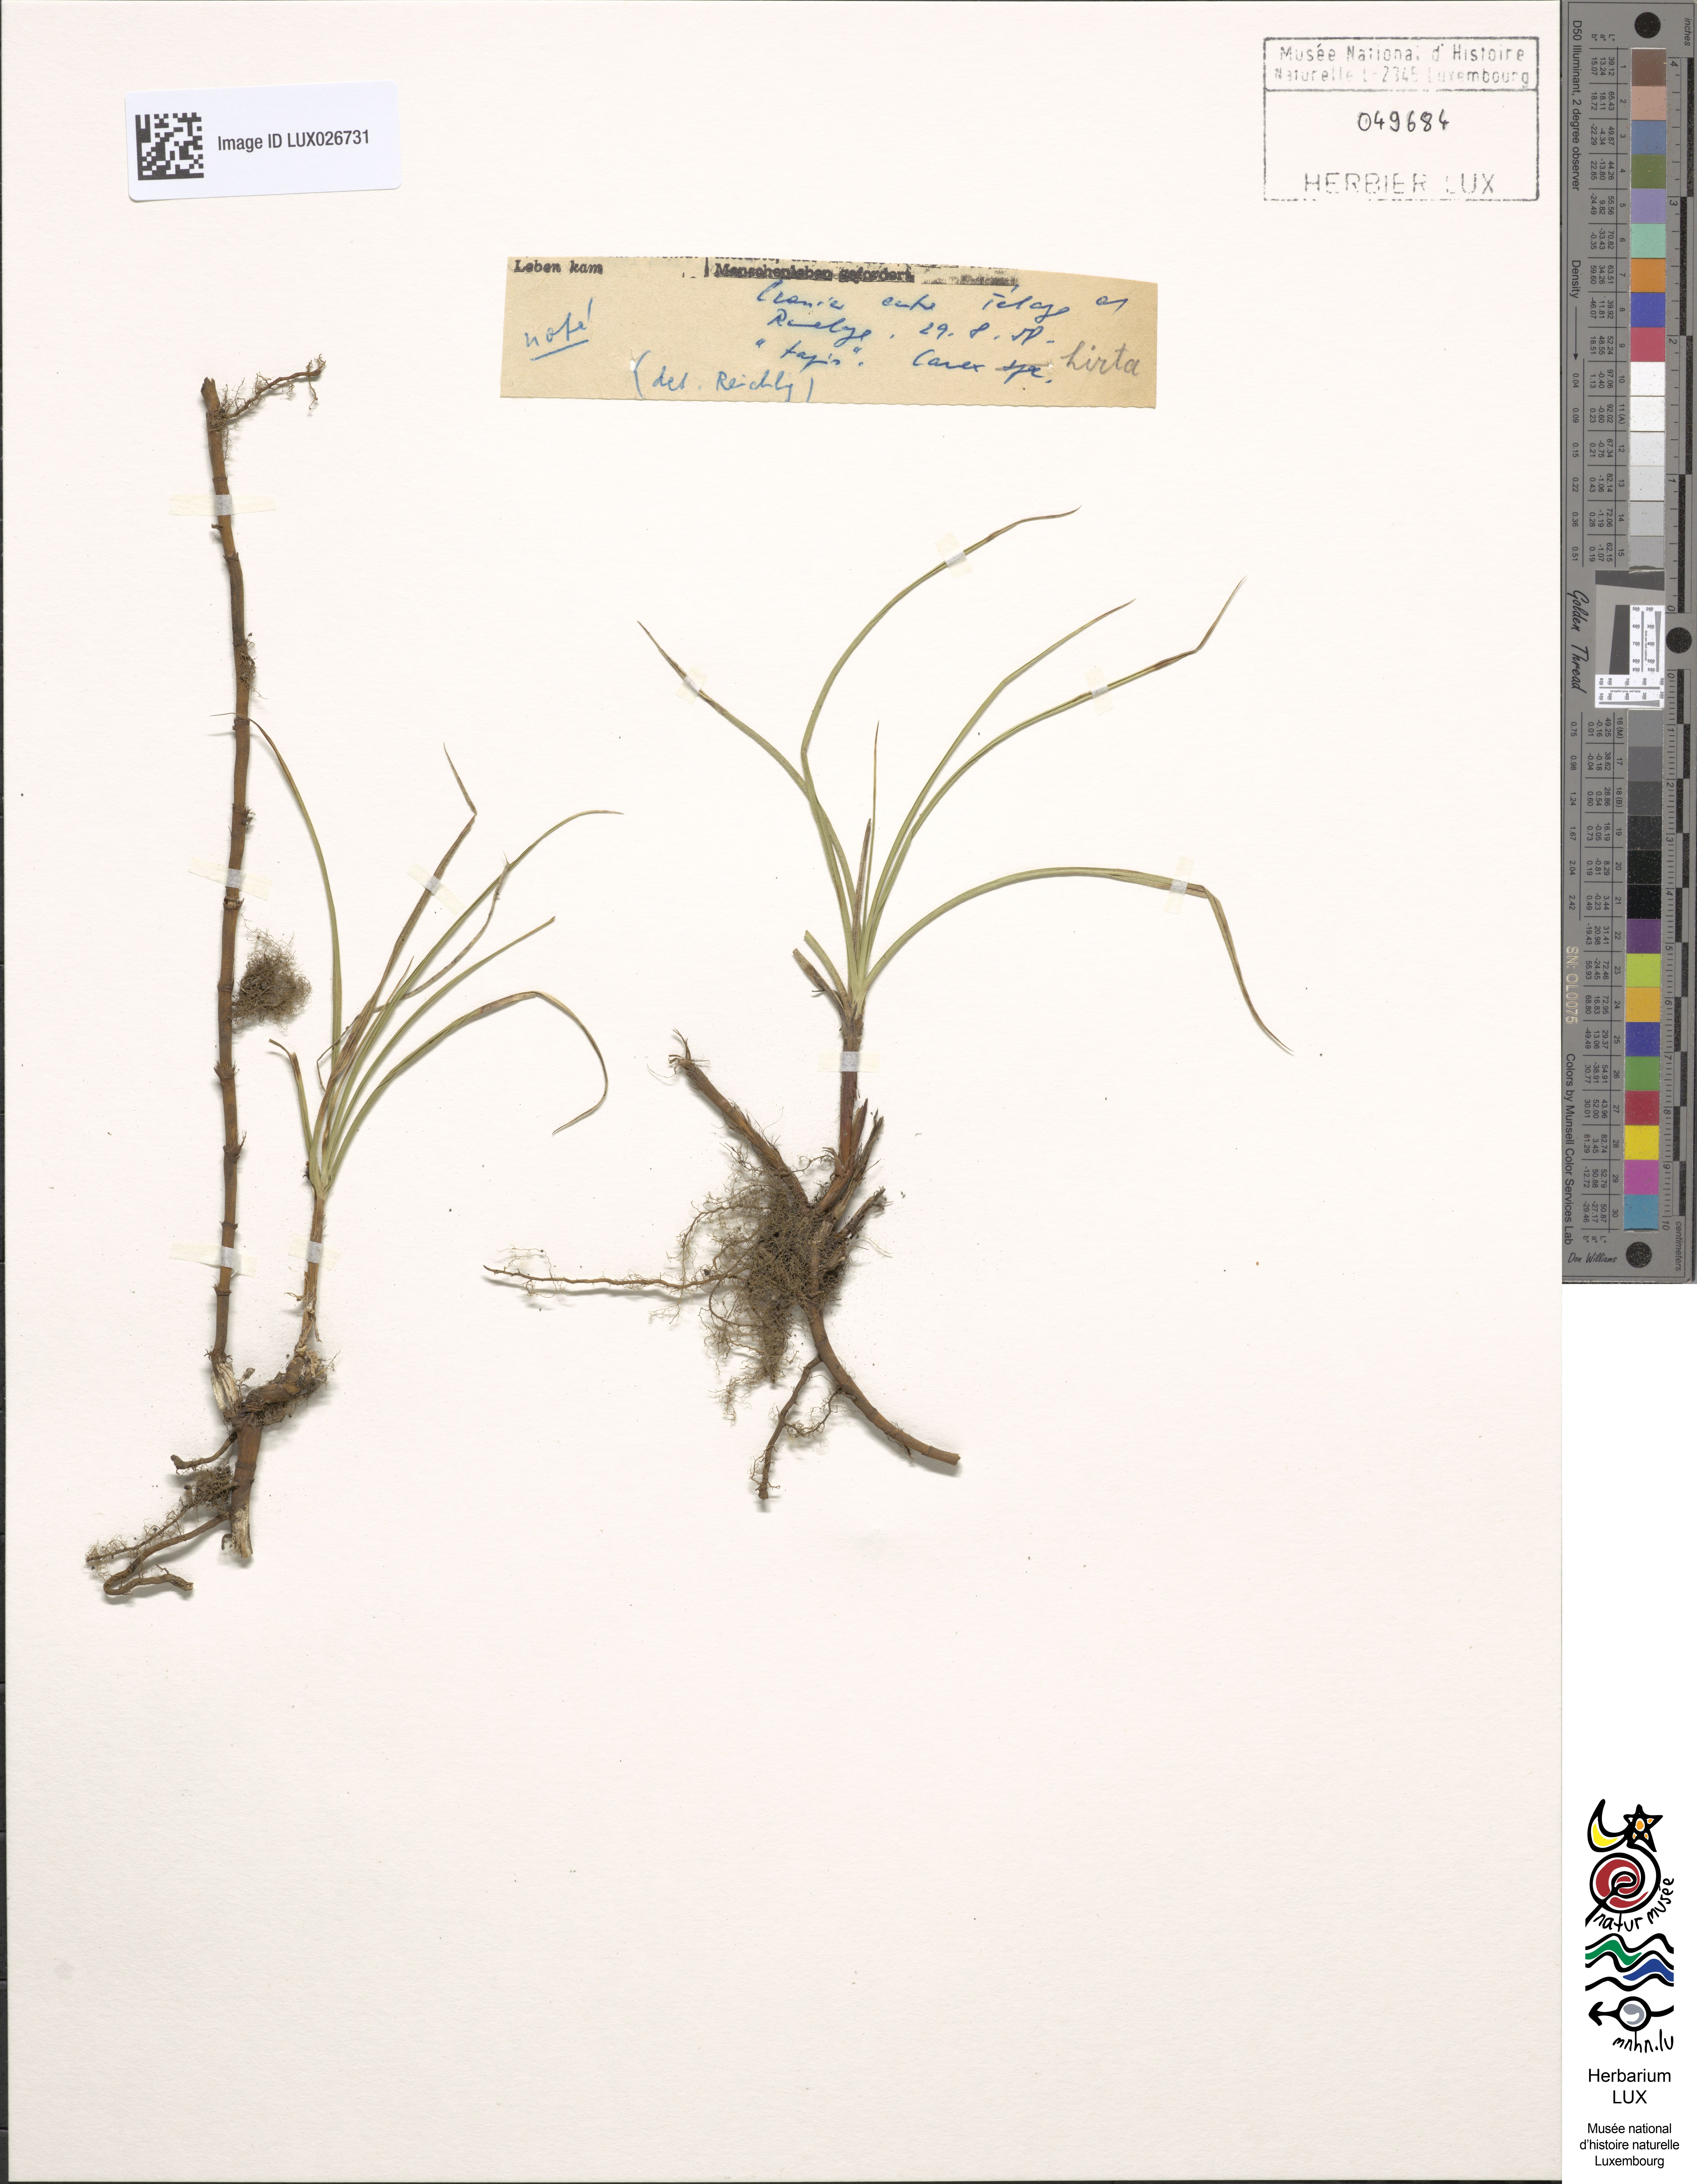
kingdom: Plantae
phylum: Tracheophyta
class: Liliopsida
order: Poales
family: Cyperaceae
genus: Carex
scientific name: Carex hirta
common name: Hairy sedge
